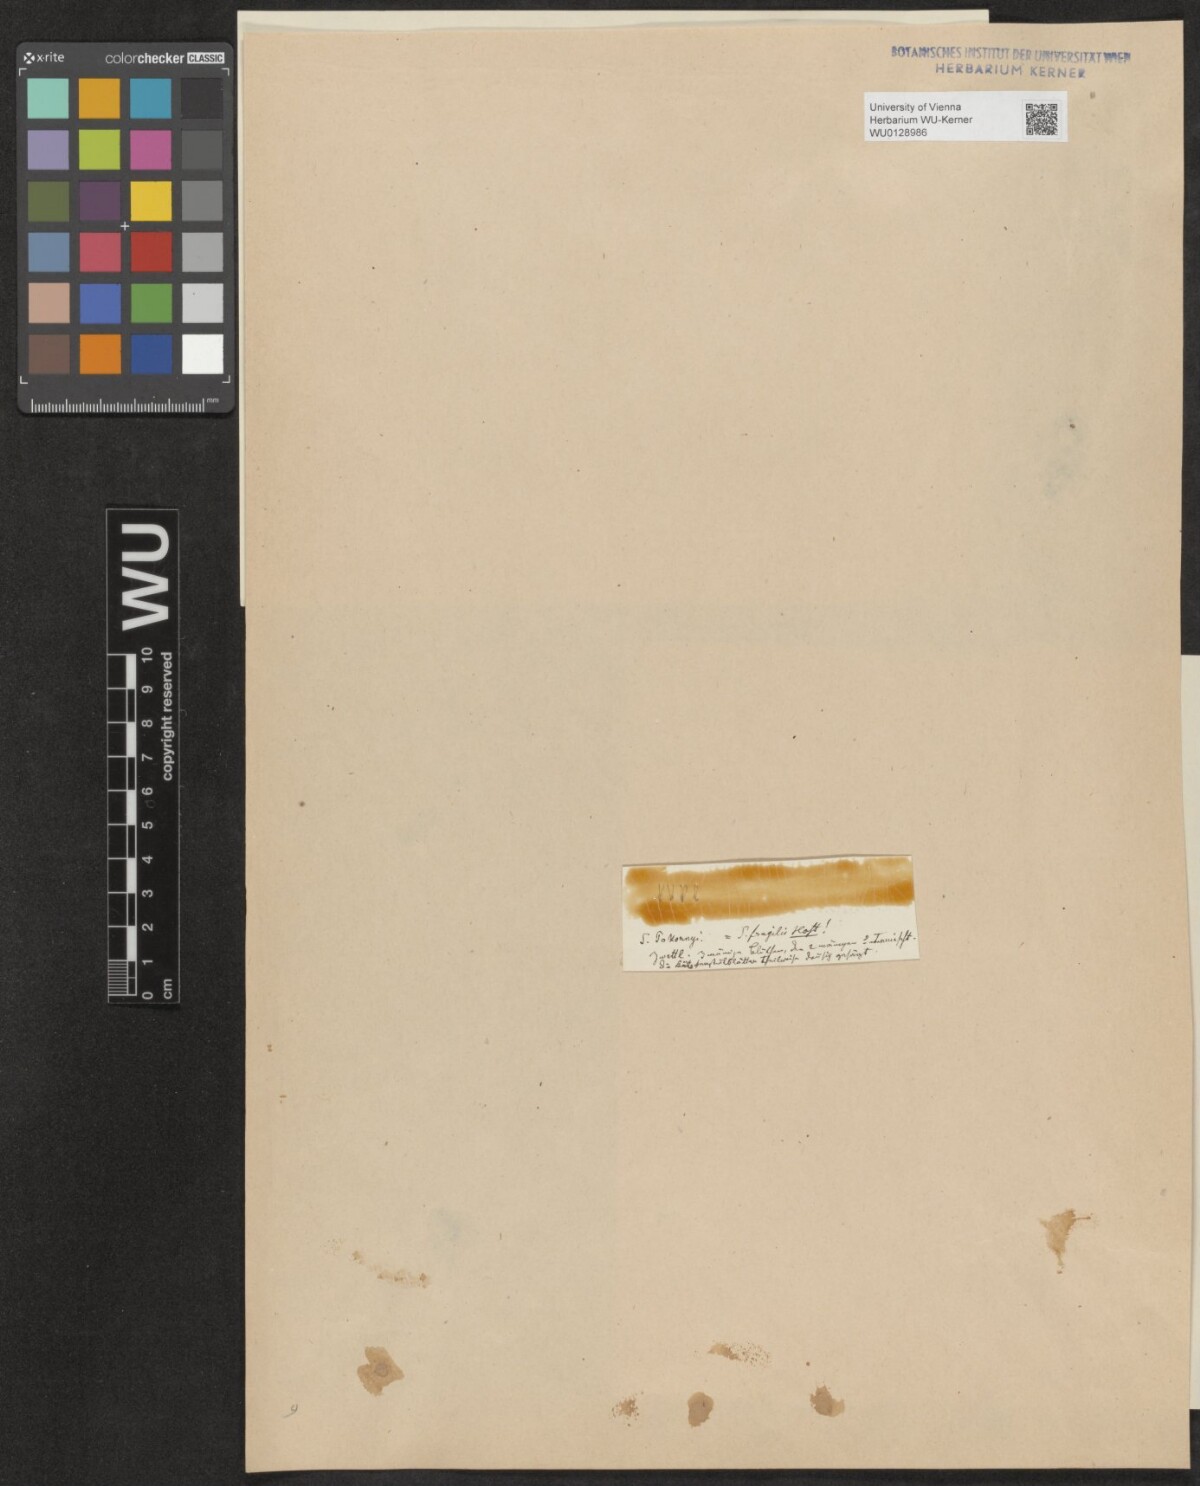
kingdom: Plantae
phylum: Tracheophyta
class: Magnoliopsida
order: Malpighiales
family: Salicaceae
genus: Salix
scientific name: Salix fragilis
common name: Crack willow
